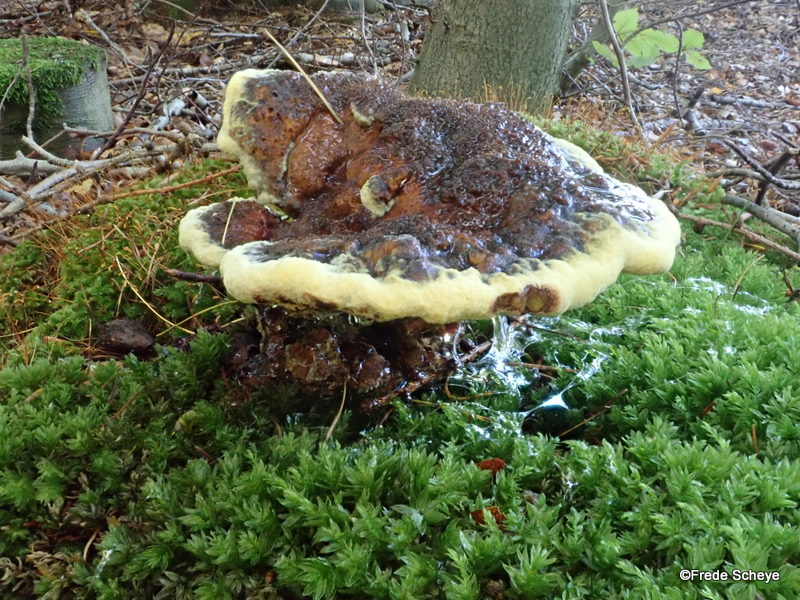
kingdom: Fungi
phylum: Basidiomycota
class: Agaricomycetes
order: Polyporales
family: Laetiporaceae
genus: Phaeolus
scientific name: Phaeolus schweinitzii
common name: brunporesvamp
